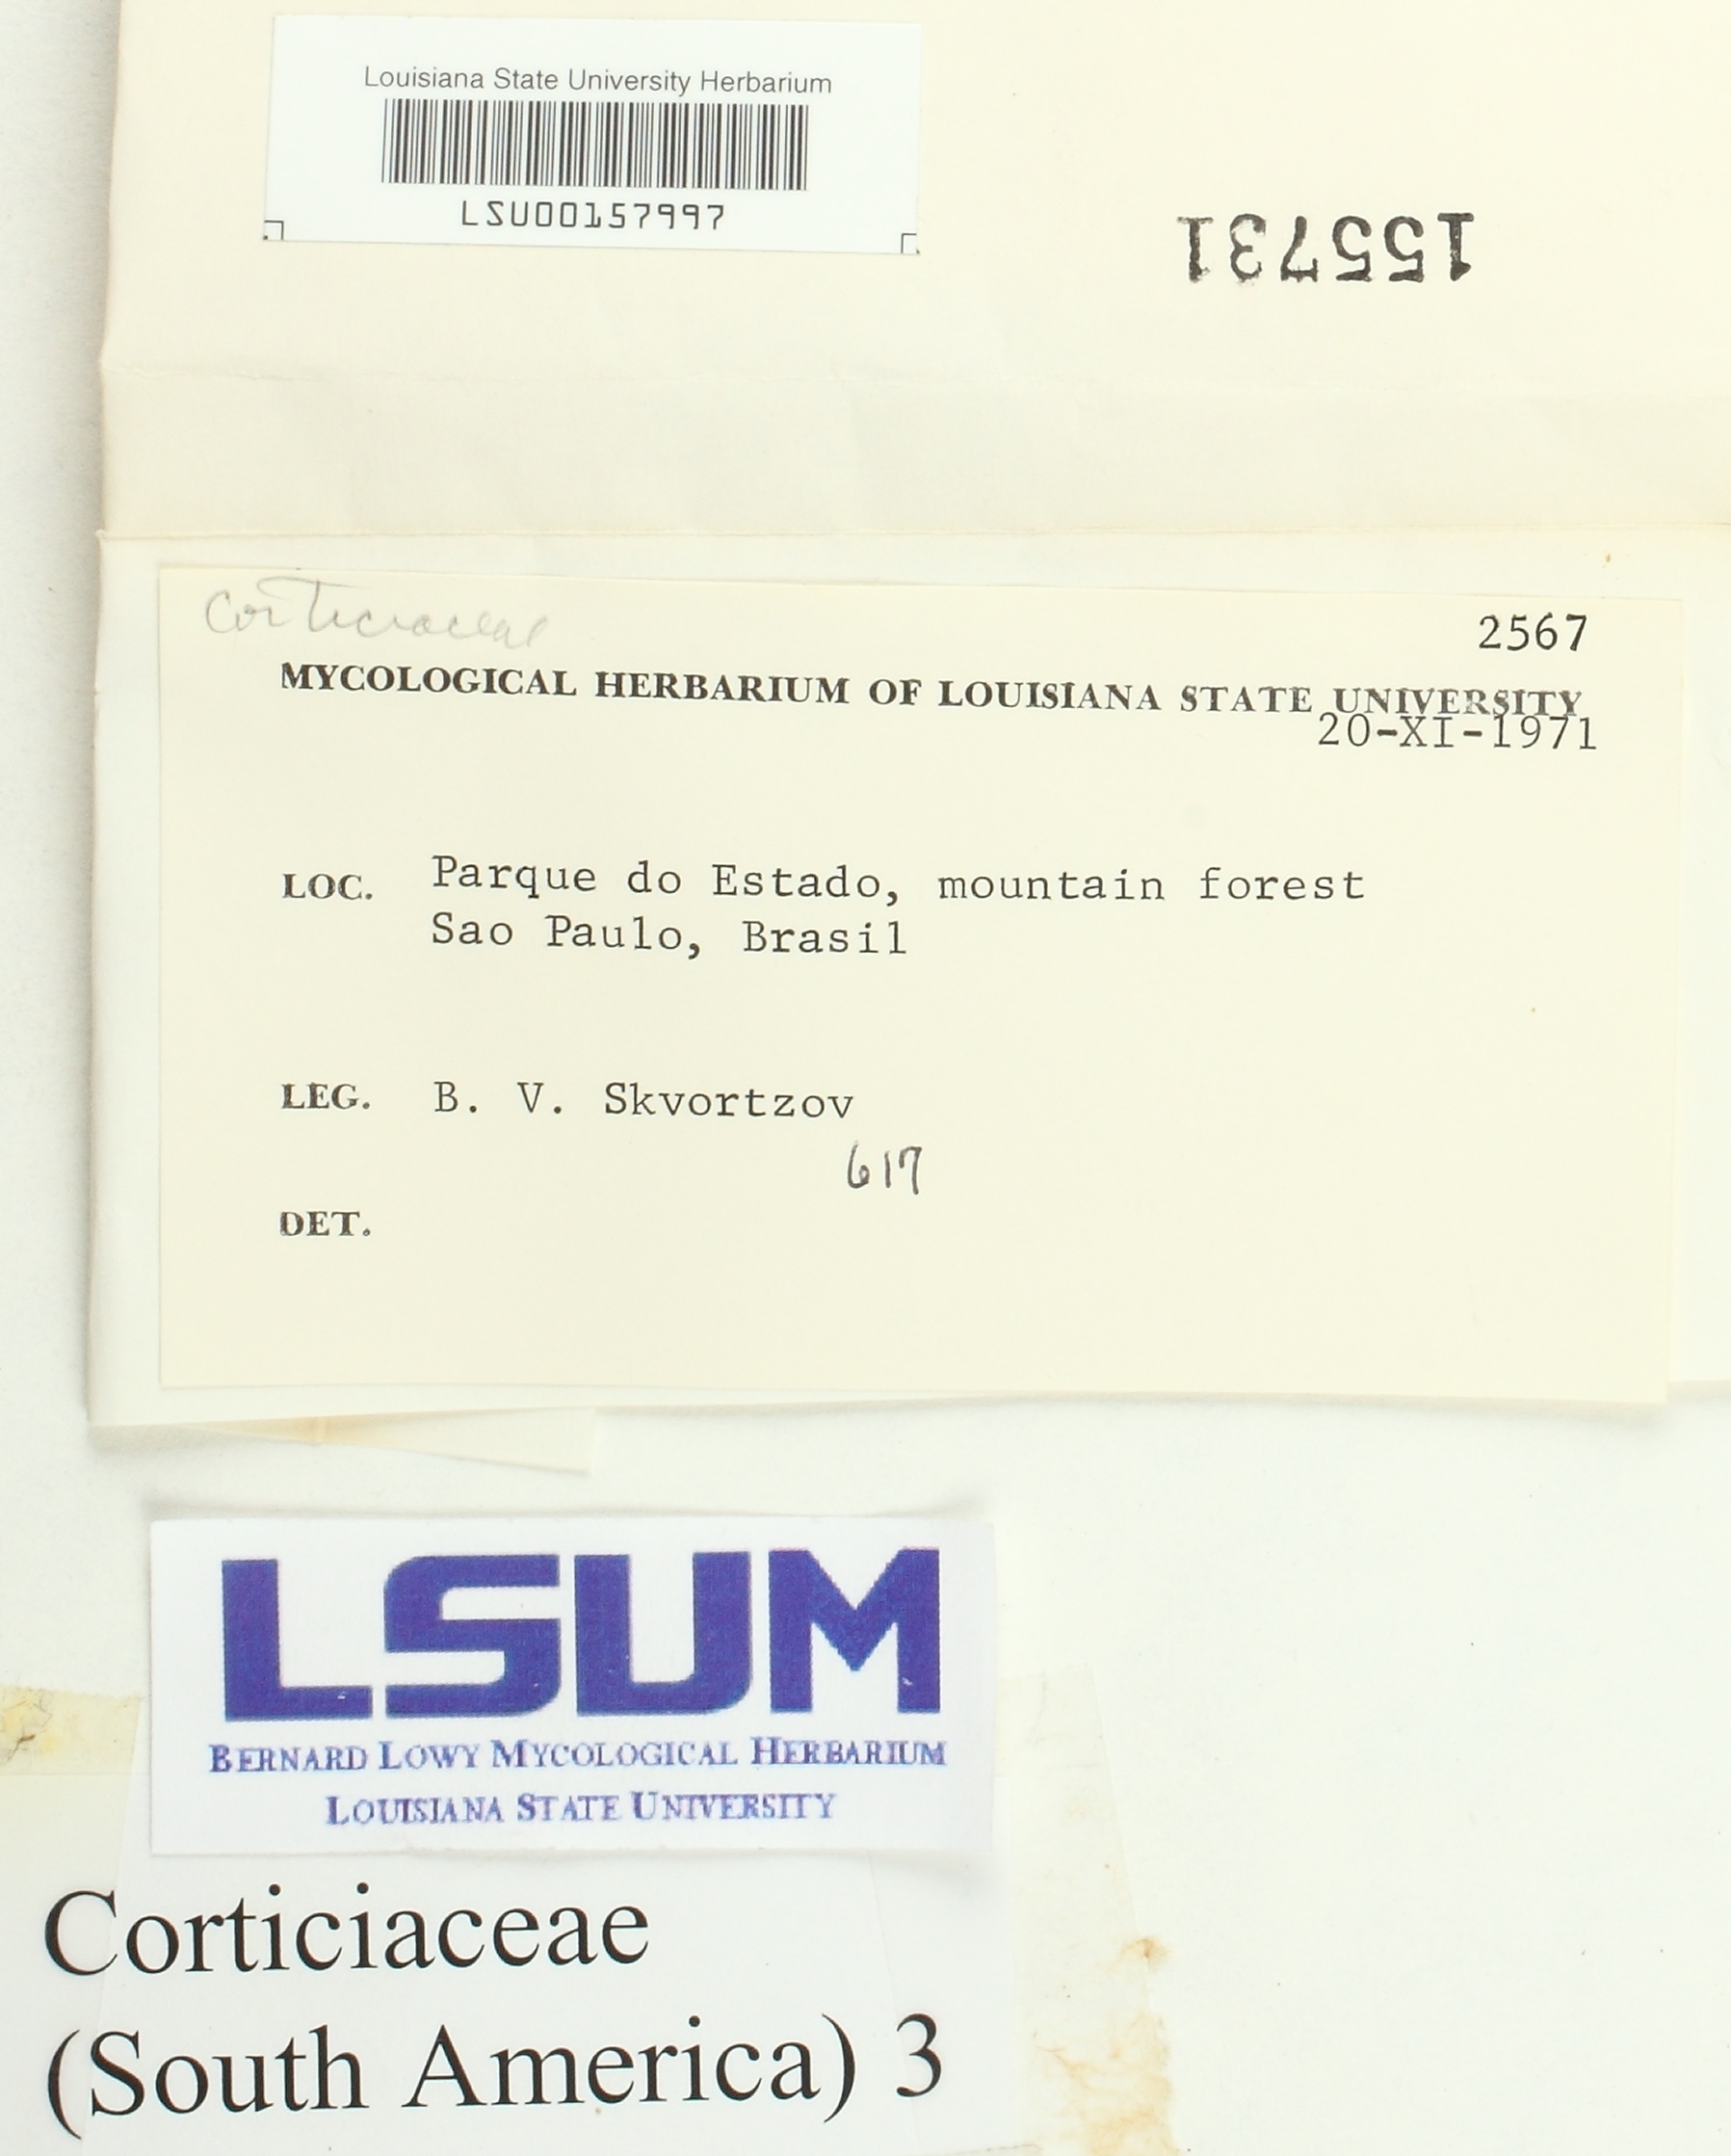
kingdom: Fungi
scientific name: Fungi
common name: Fungi
